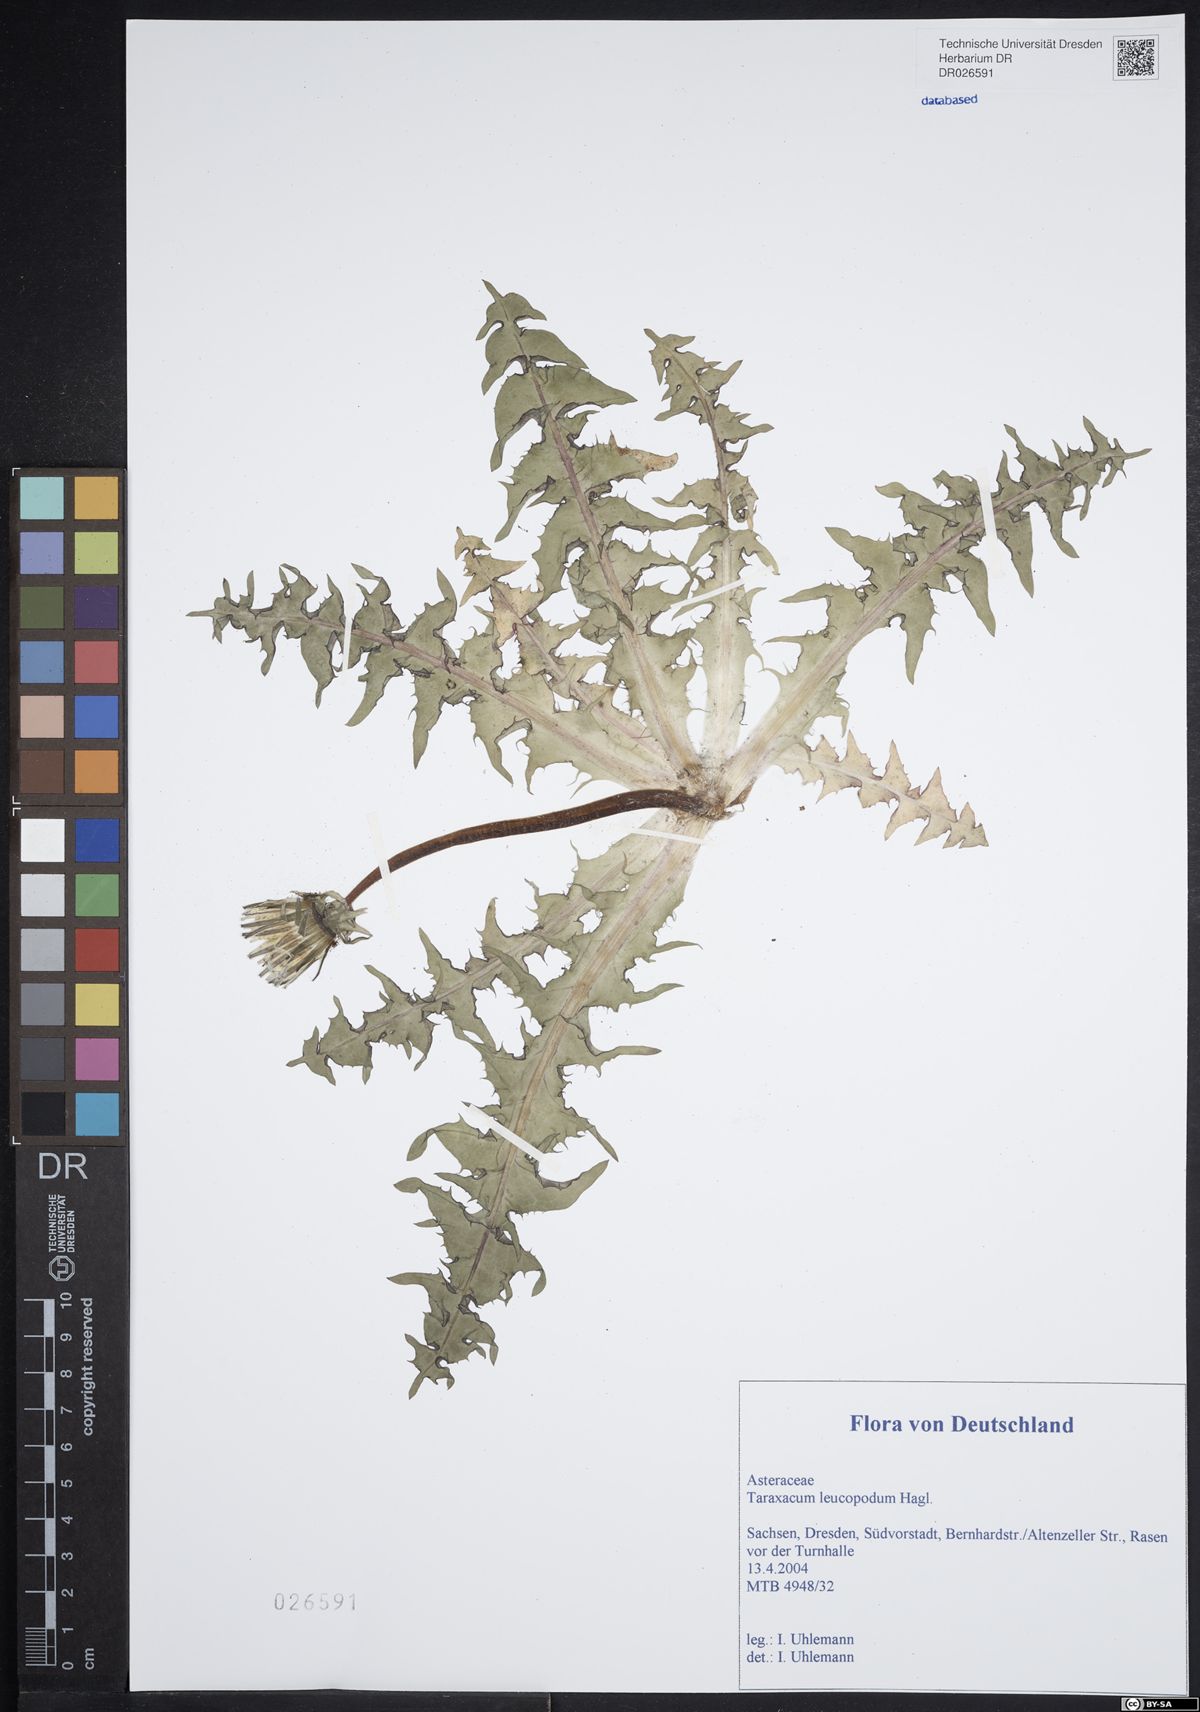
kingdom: Plantae
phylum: Tracheophyta
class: Magnoliopsida
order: Asterales
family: Asteraceae
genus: Taraxacum
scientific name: Taraxacum leucopodum
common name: White-stalked dandelion
